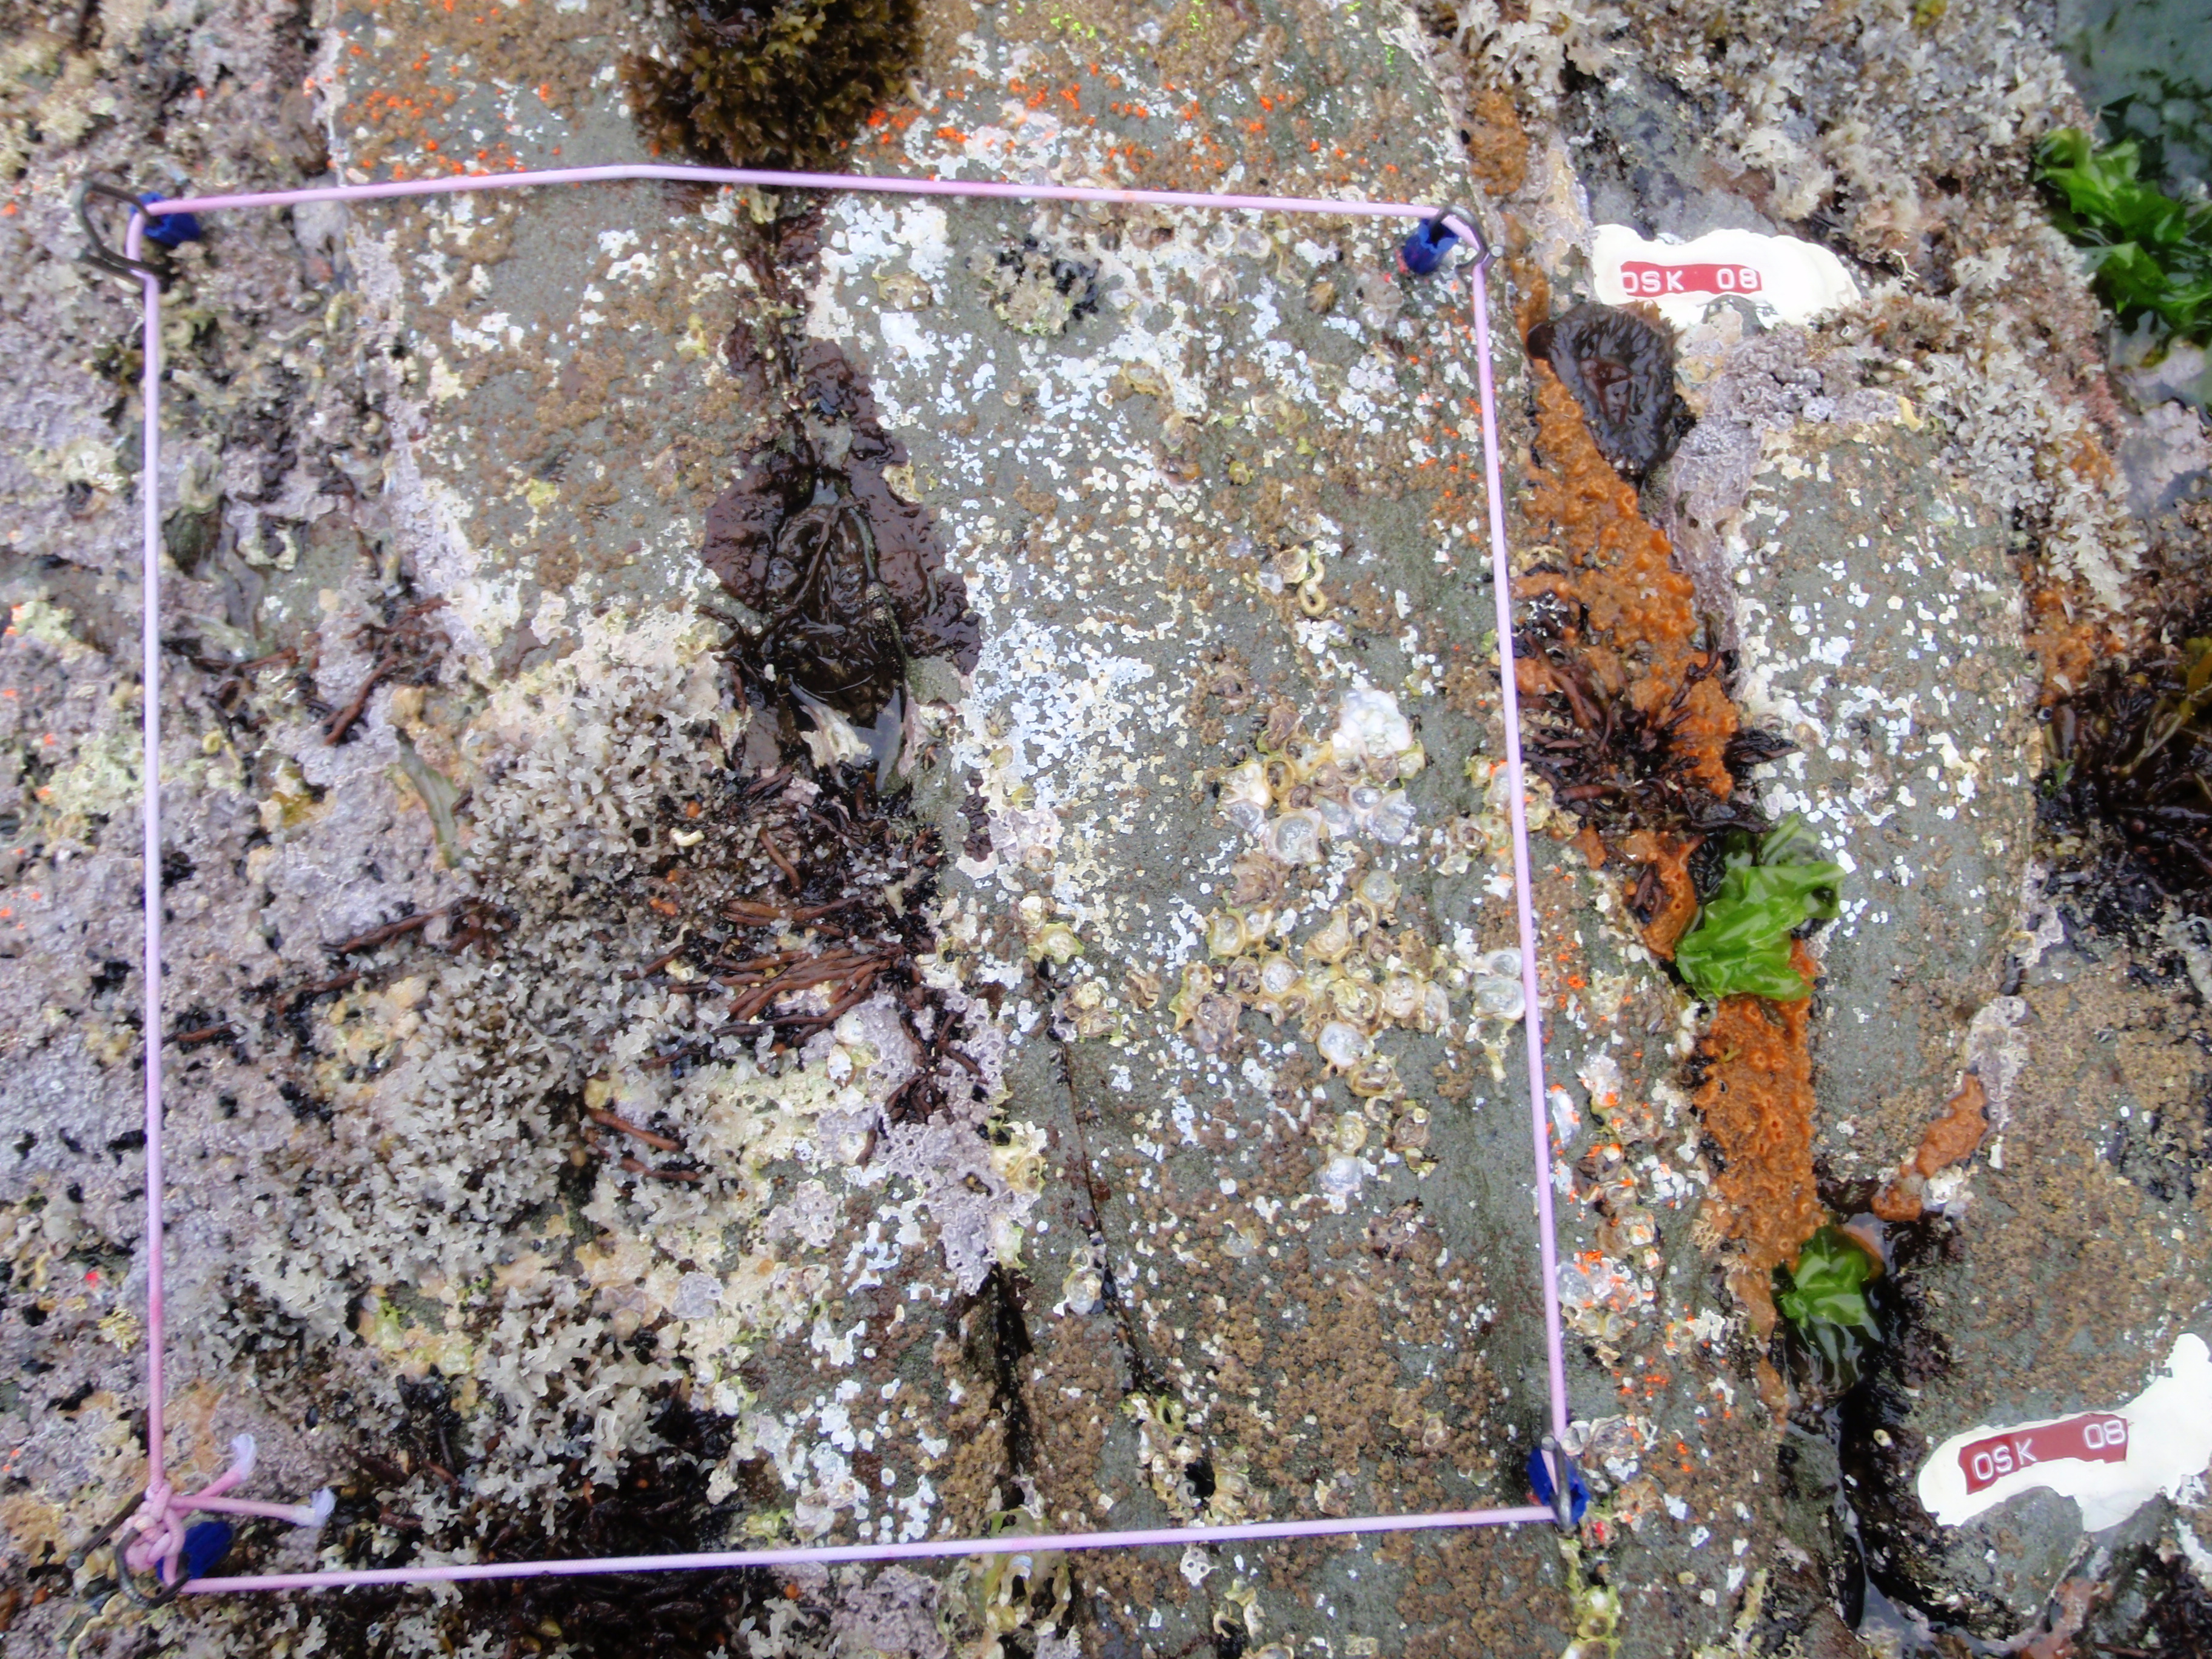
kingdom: Animalia
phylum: Arthropoda
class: Maxillopoda
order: Sessilia
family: Chthamalidae
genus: Chthamalus
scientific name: Chthamalus challengeri
